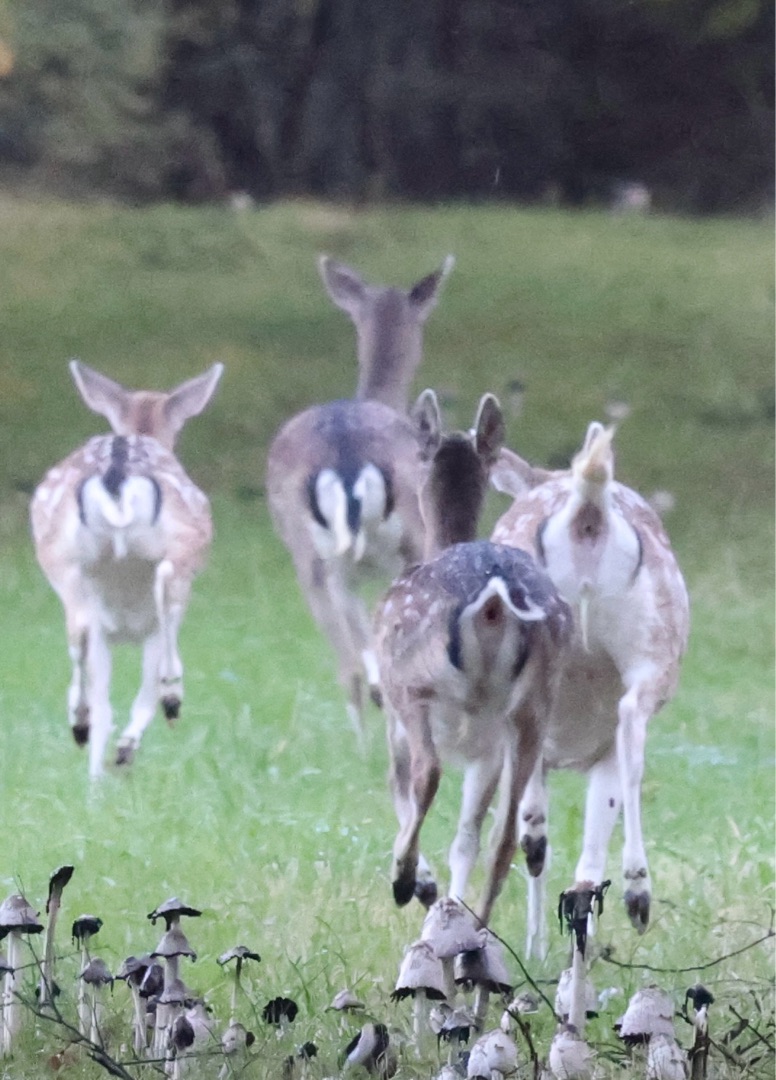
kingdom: Animalia
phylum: Chordata
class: Mammalia
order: Artiodactyla
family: Cervidae
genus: Dama
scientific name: Dama dama
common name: Dådyr
